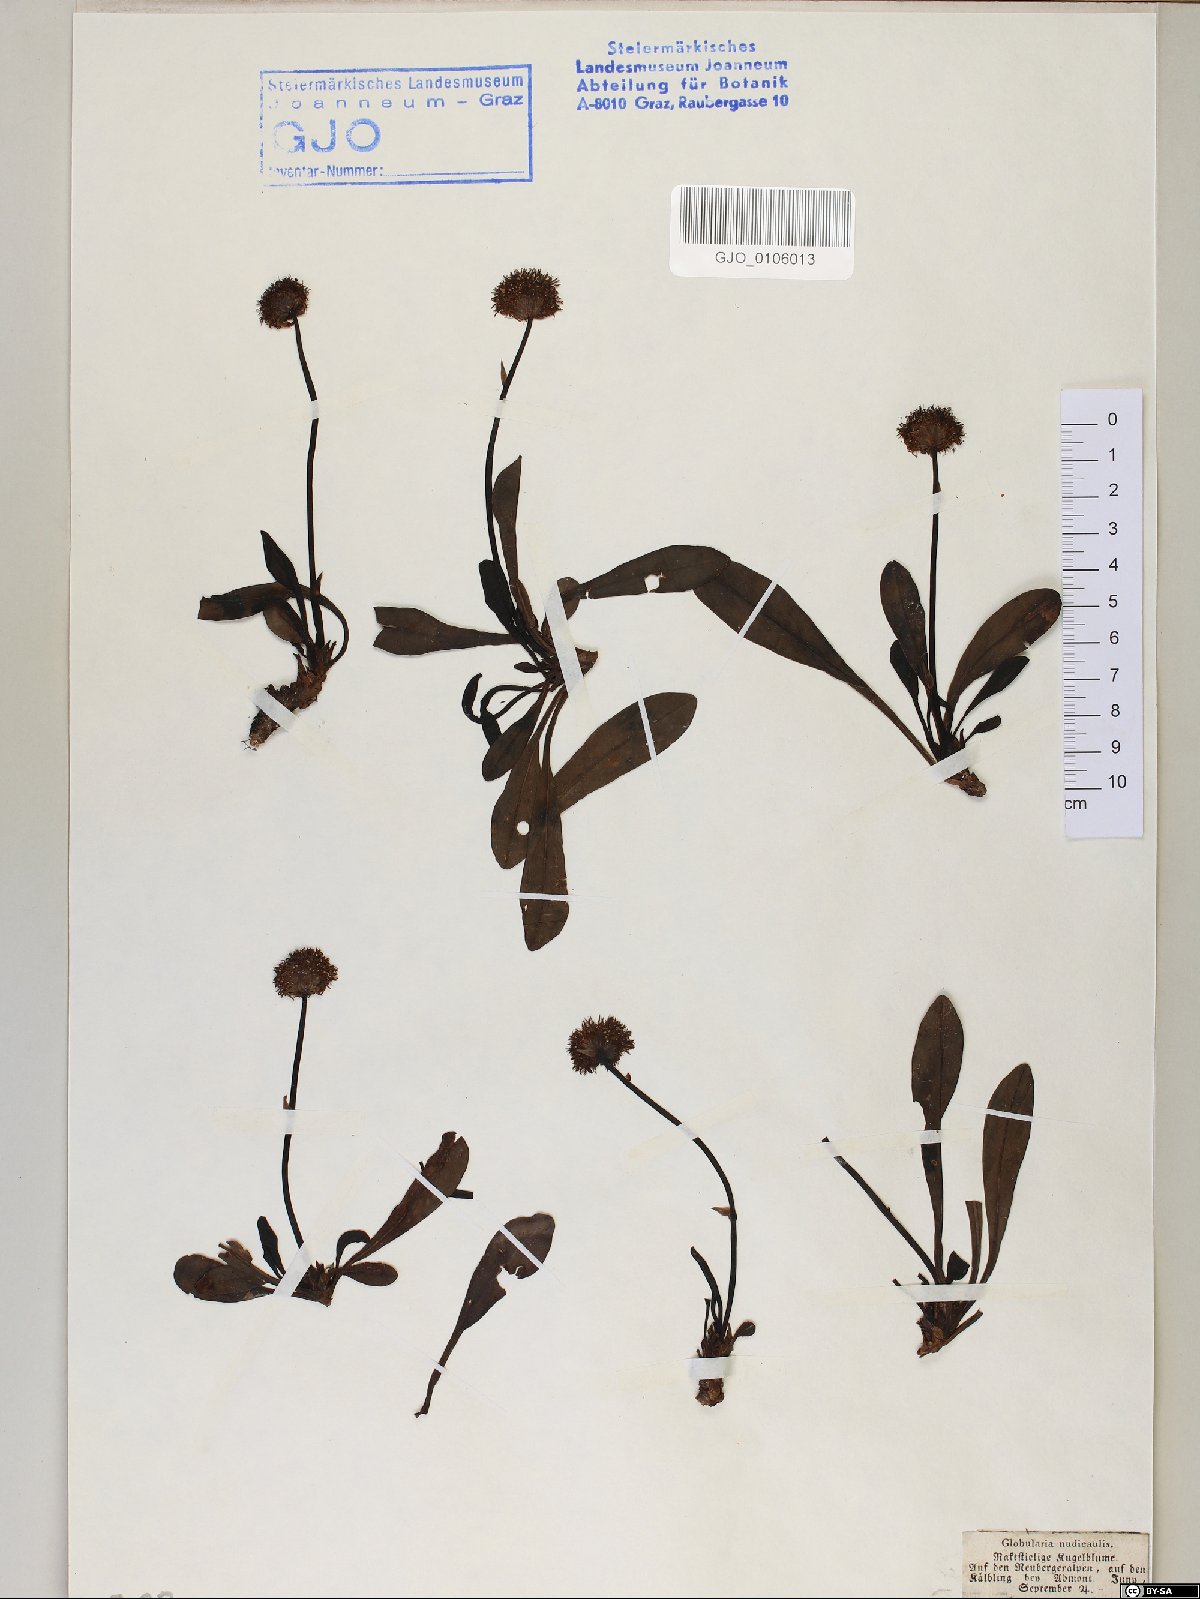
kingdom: Plantae
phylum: Tracheophyta
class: Magnoliopsida
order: Lamiales
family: Plantaginaceae
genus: Globularia
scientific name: Globularia nudicaulis
